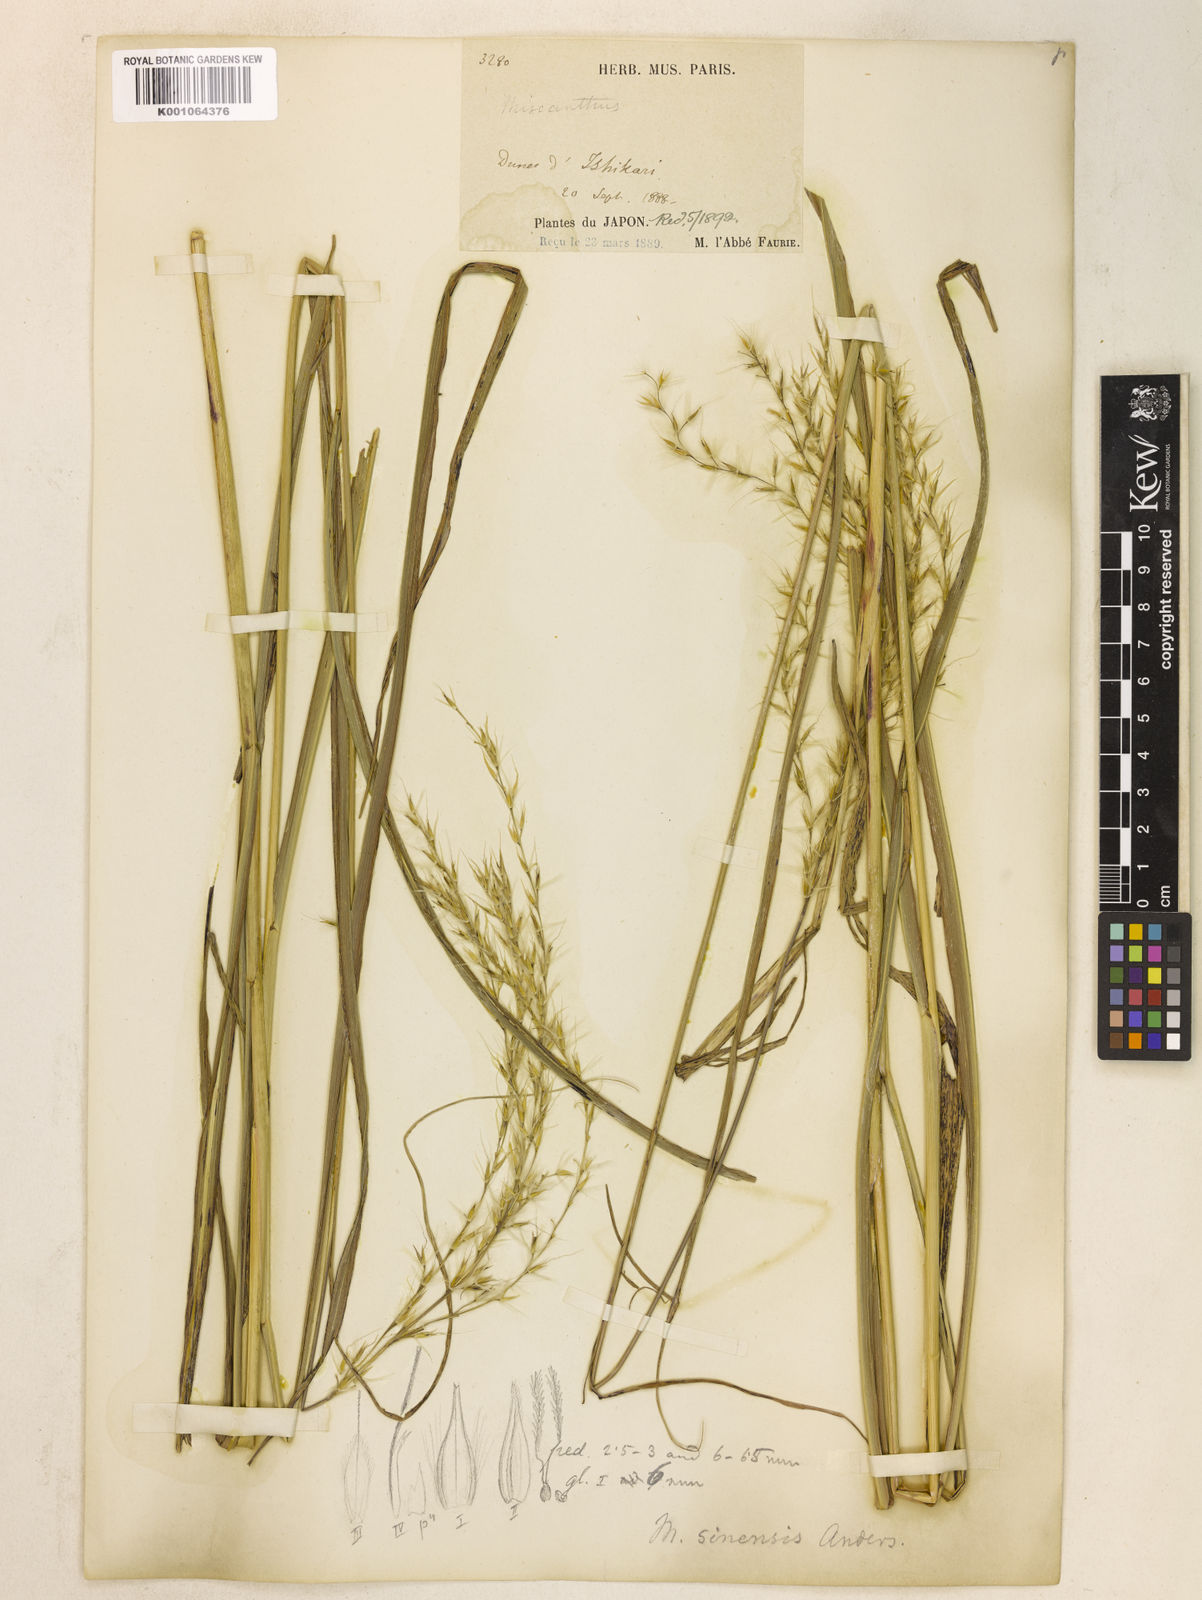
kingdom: Plantae
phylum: Tracheophyta
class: Liliopsida
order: Poales
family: Poaceae
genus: Miscanthus
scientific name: Miscanthus sinensis
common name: Chinese silvergrass
